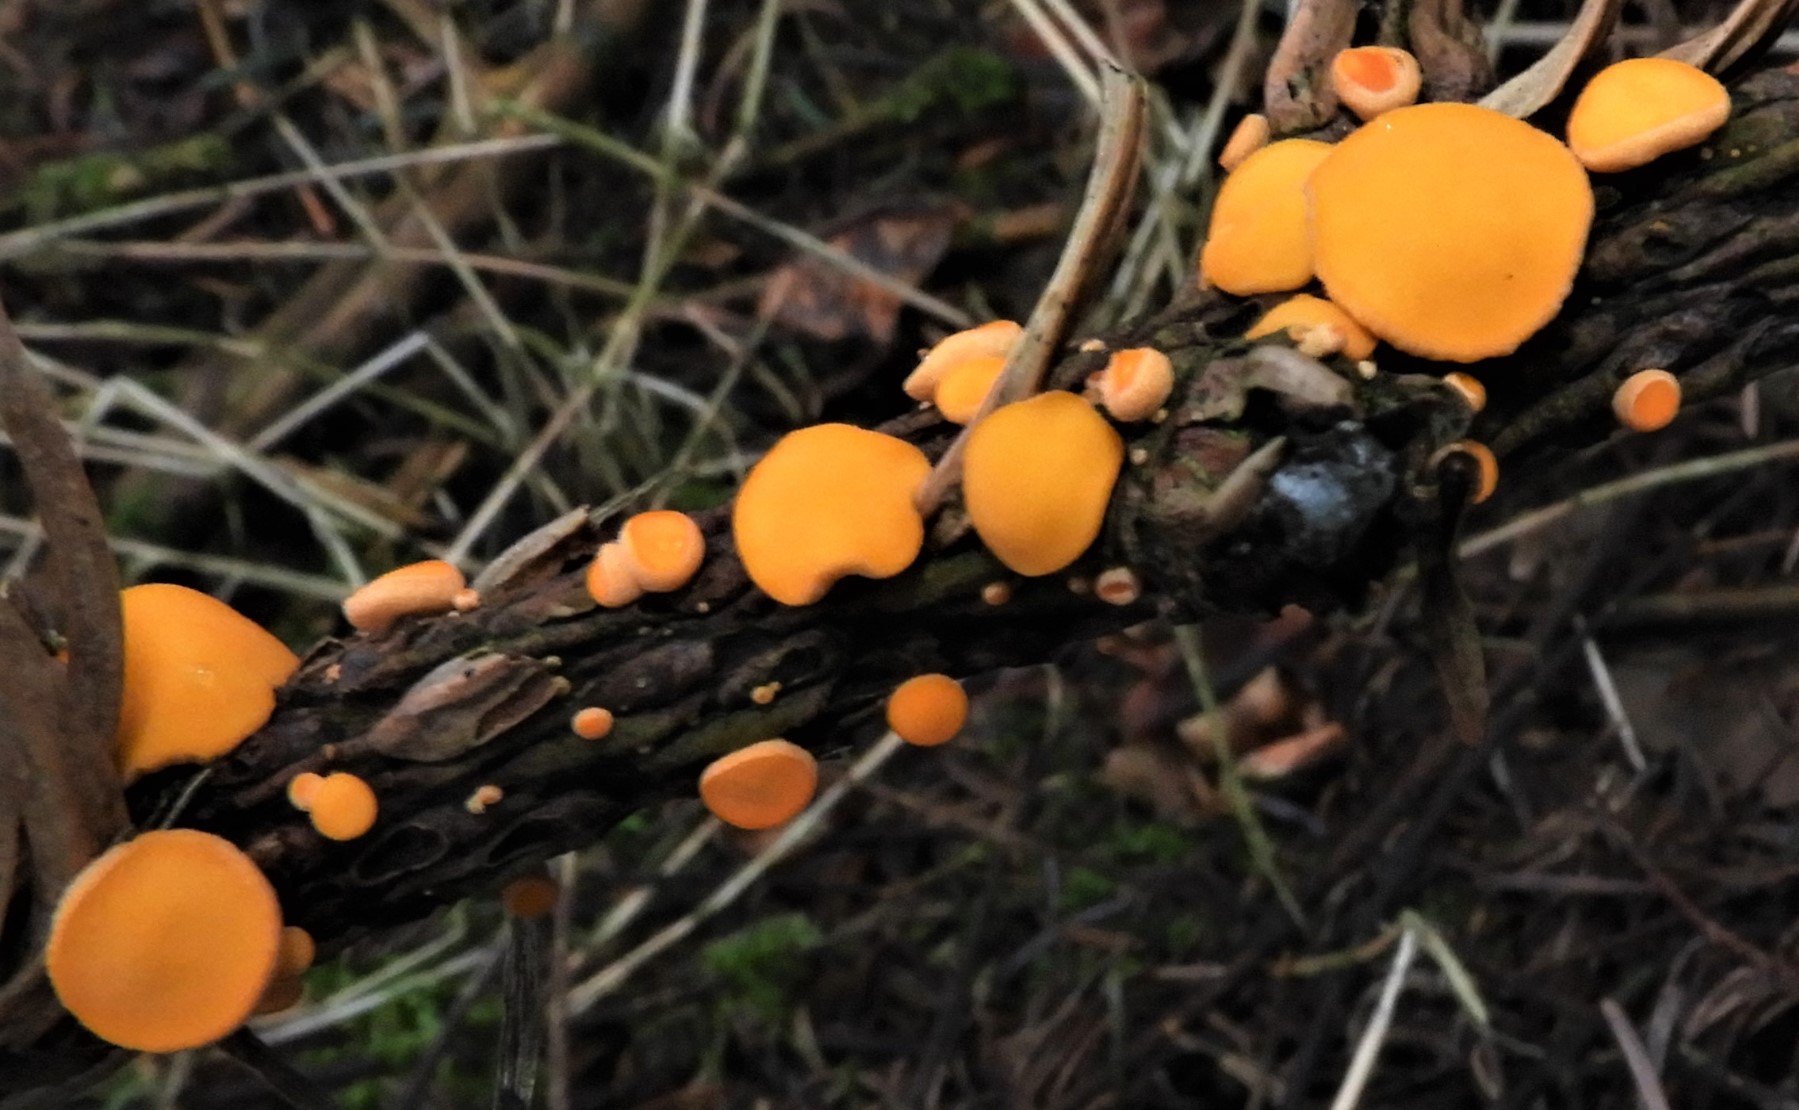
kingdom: Fungi
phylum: Ascomycota
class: Pezizomycetes
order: Pezizales
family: Sarcoscyphaceae
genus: Pithya
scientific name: Pithya vulgaris
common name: stor dukatbæger
